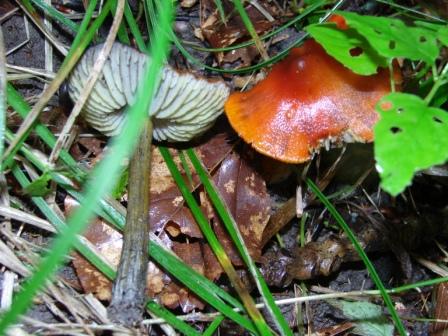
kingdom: Fungi
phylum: Basidiomycota
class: Agaricomycetes
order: Agaricales
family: Hygrophoraceae
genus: Hygrocybe
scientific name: Hygrocybe conica
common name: kegle-vokshat
